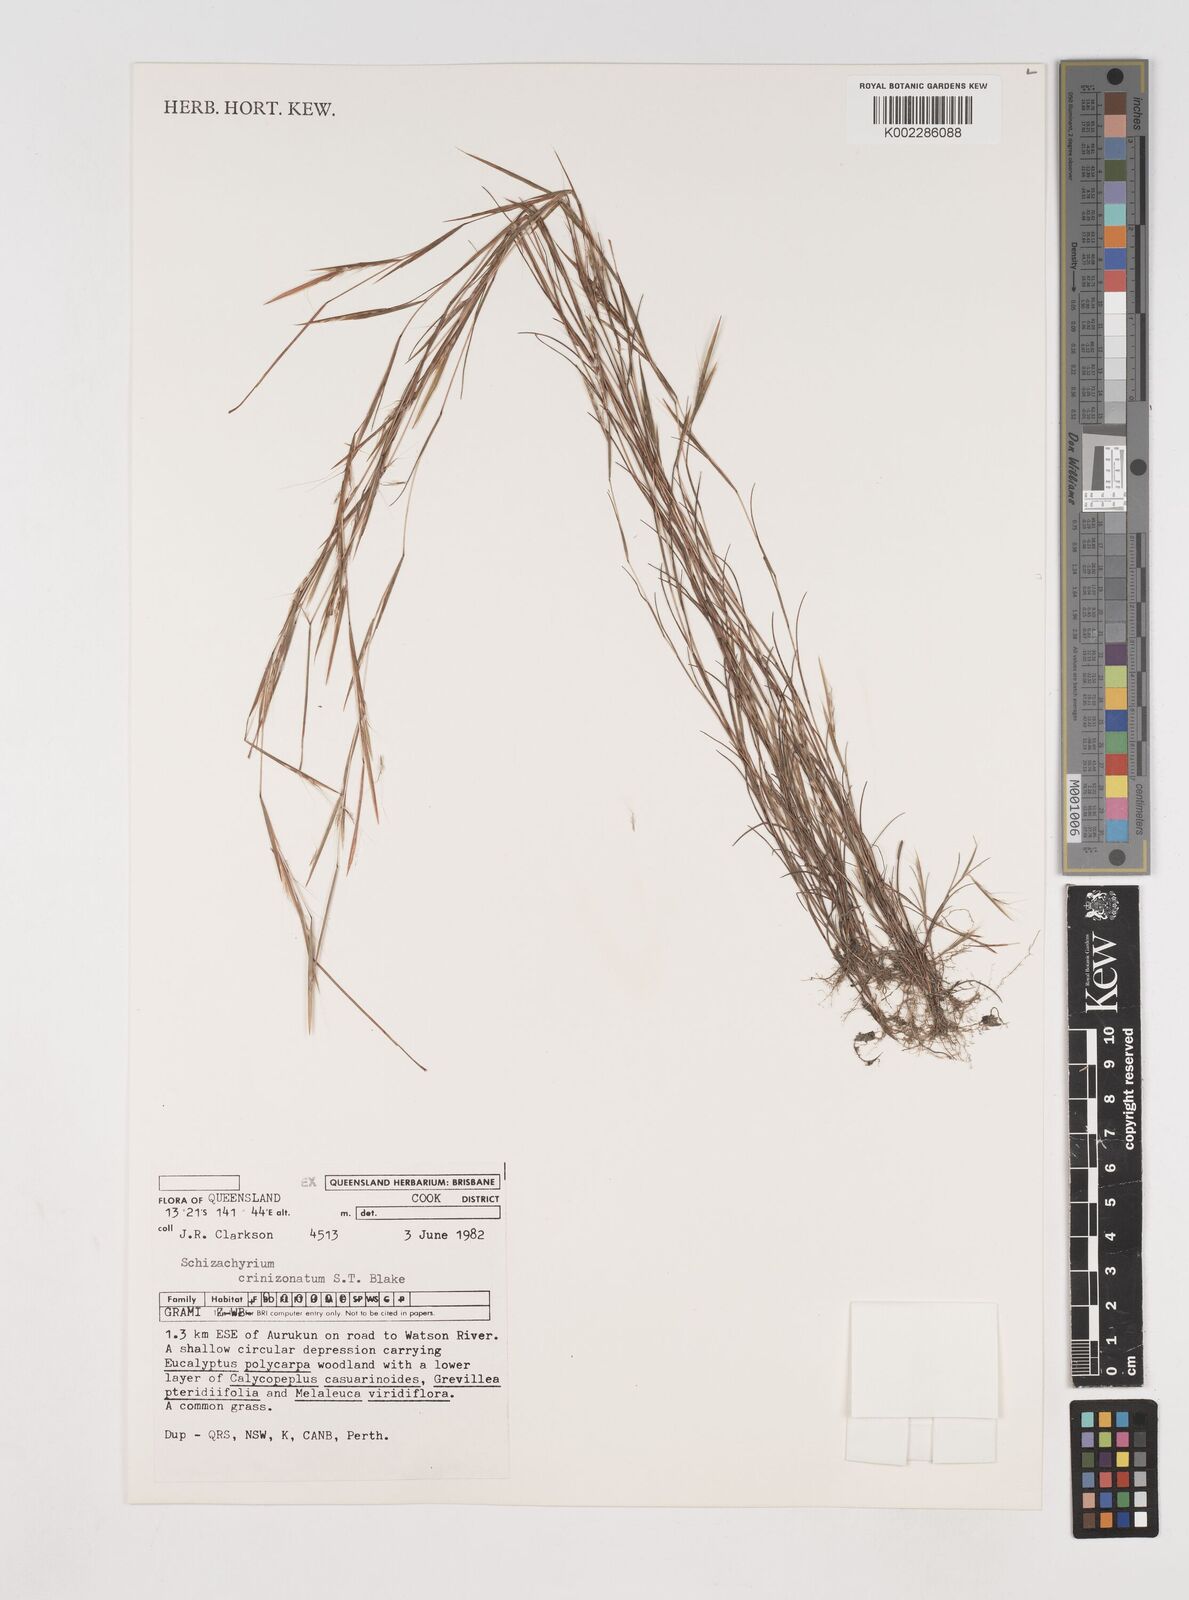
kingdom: Plantae
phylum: Tracheophyta
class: Liliopsida
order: Poales
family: Poaceae
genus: Schizachyrium
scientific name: Schizachyrium crinizonatum
